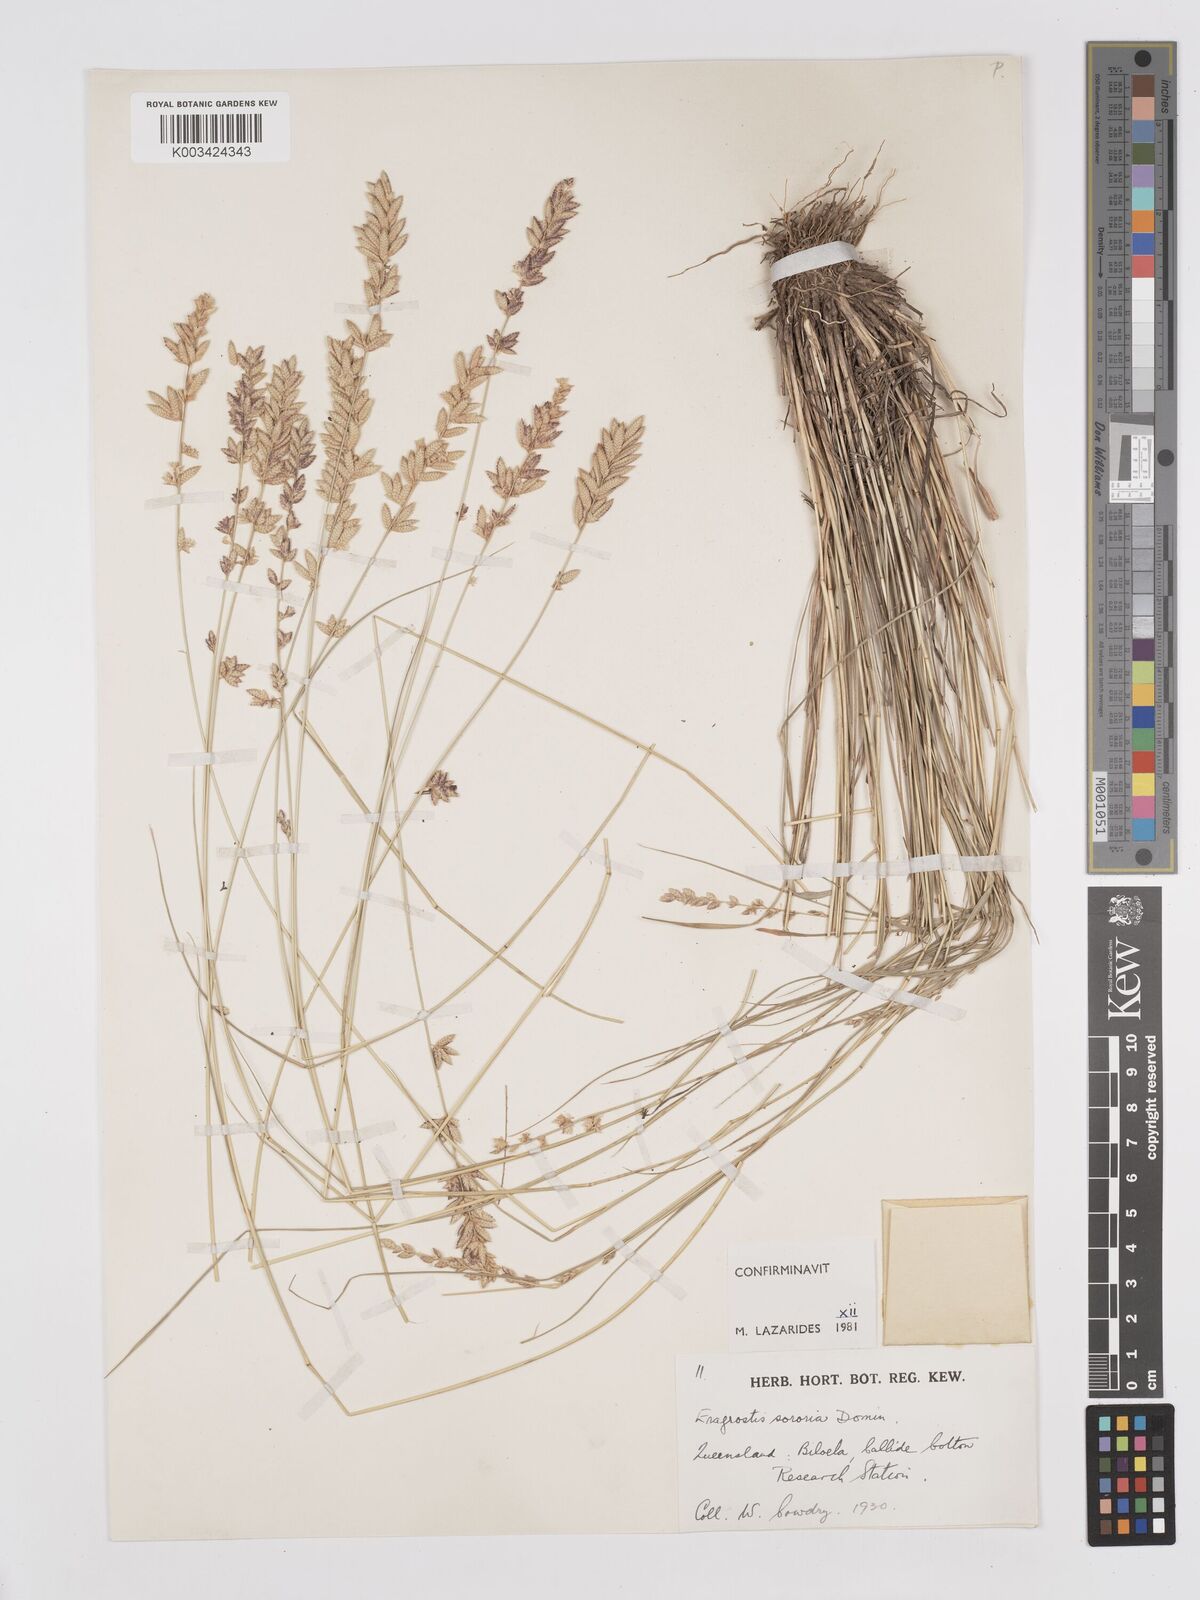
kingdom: Plantae
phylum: Tracheophyta
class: Liliopsida
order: Poales
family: Poaceae
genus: Eragrostis
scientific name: Eragrostis sororia
